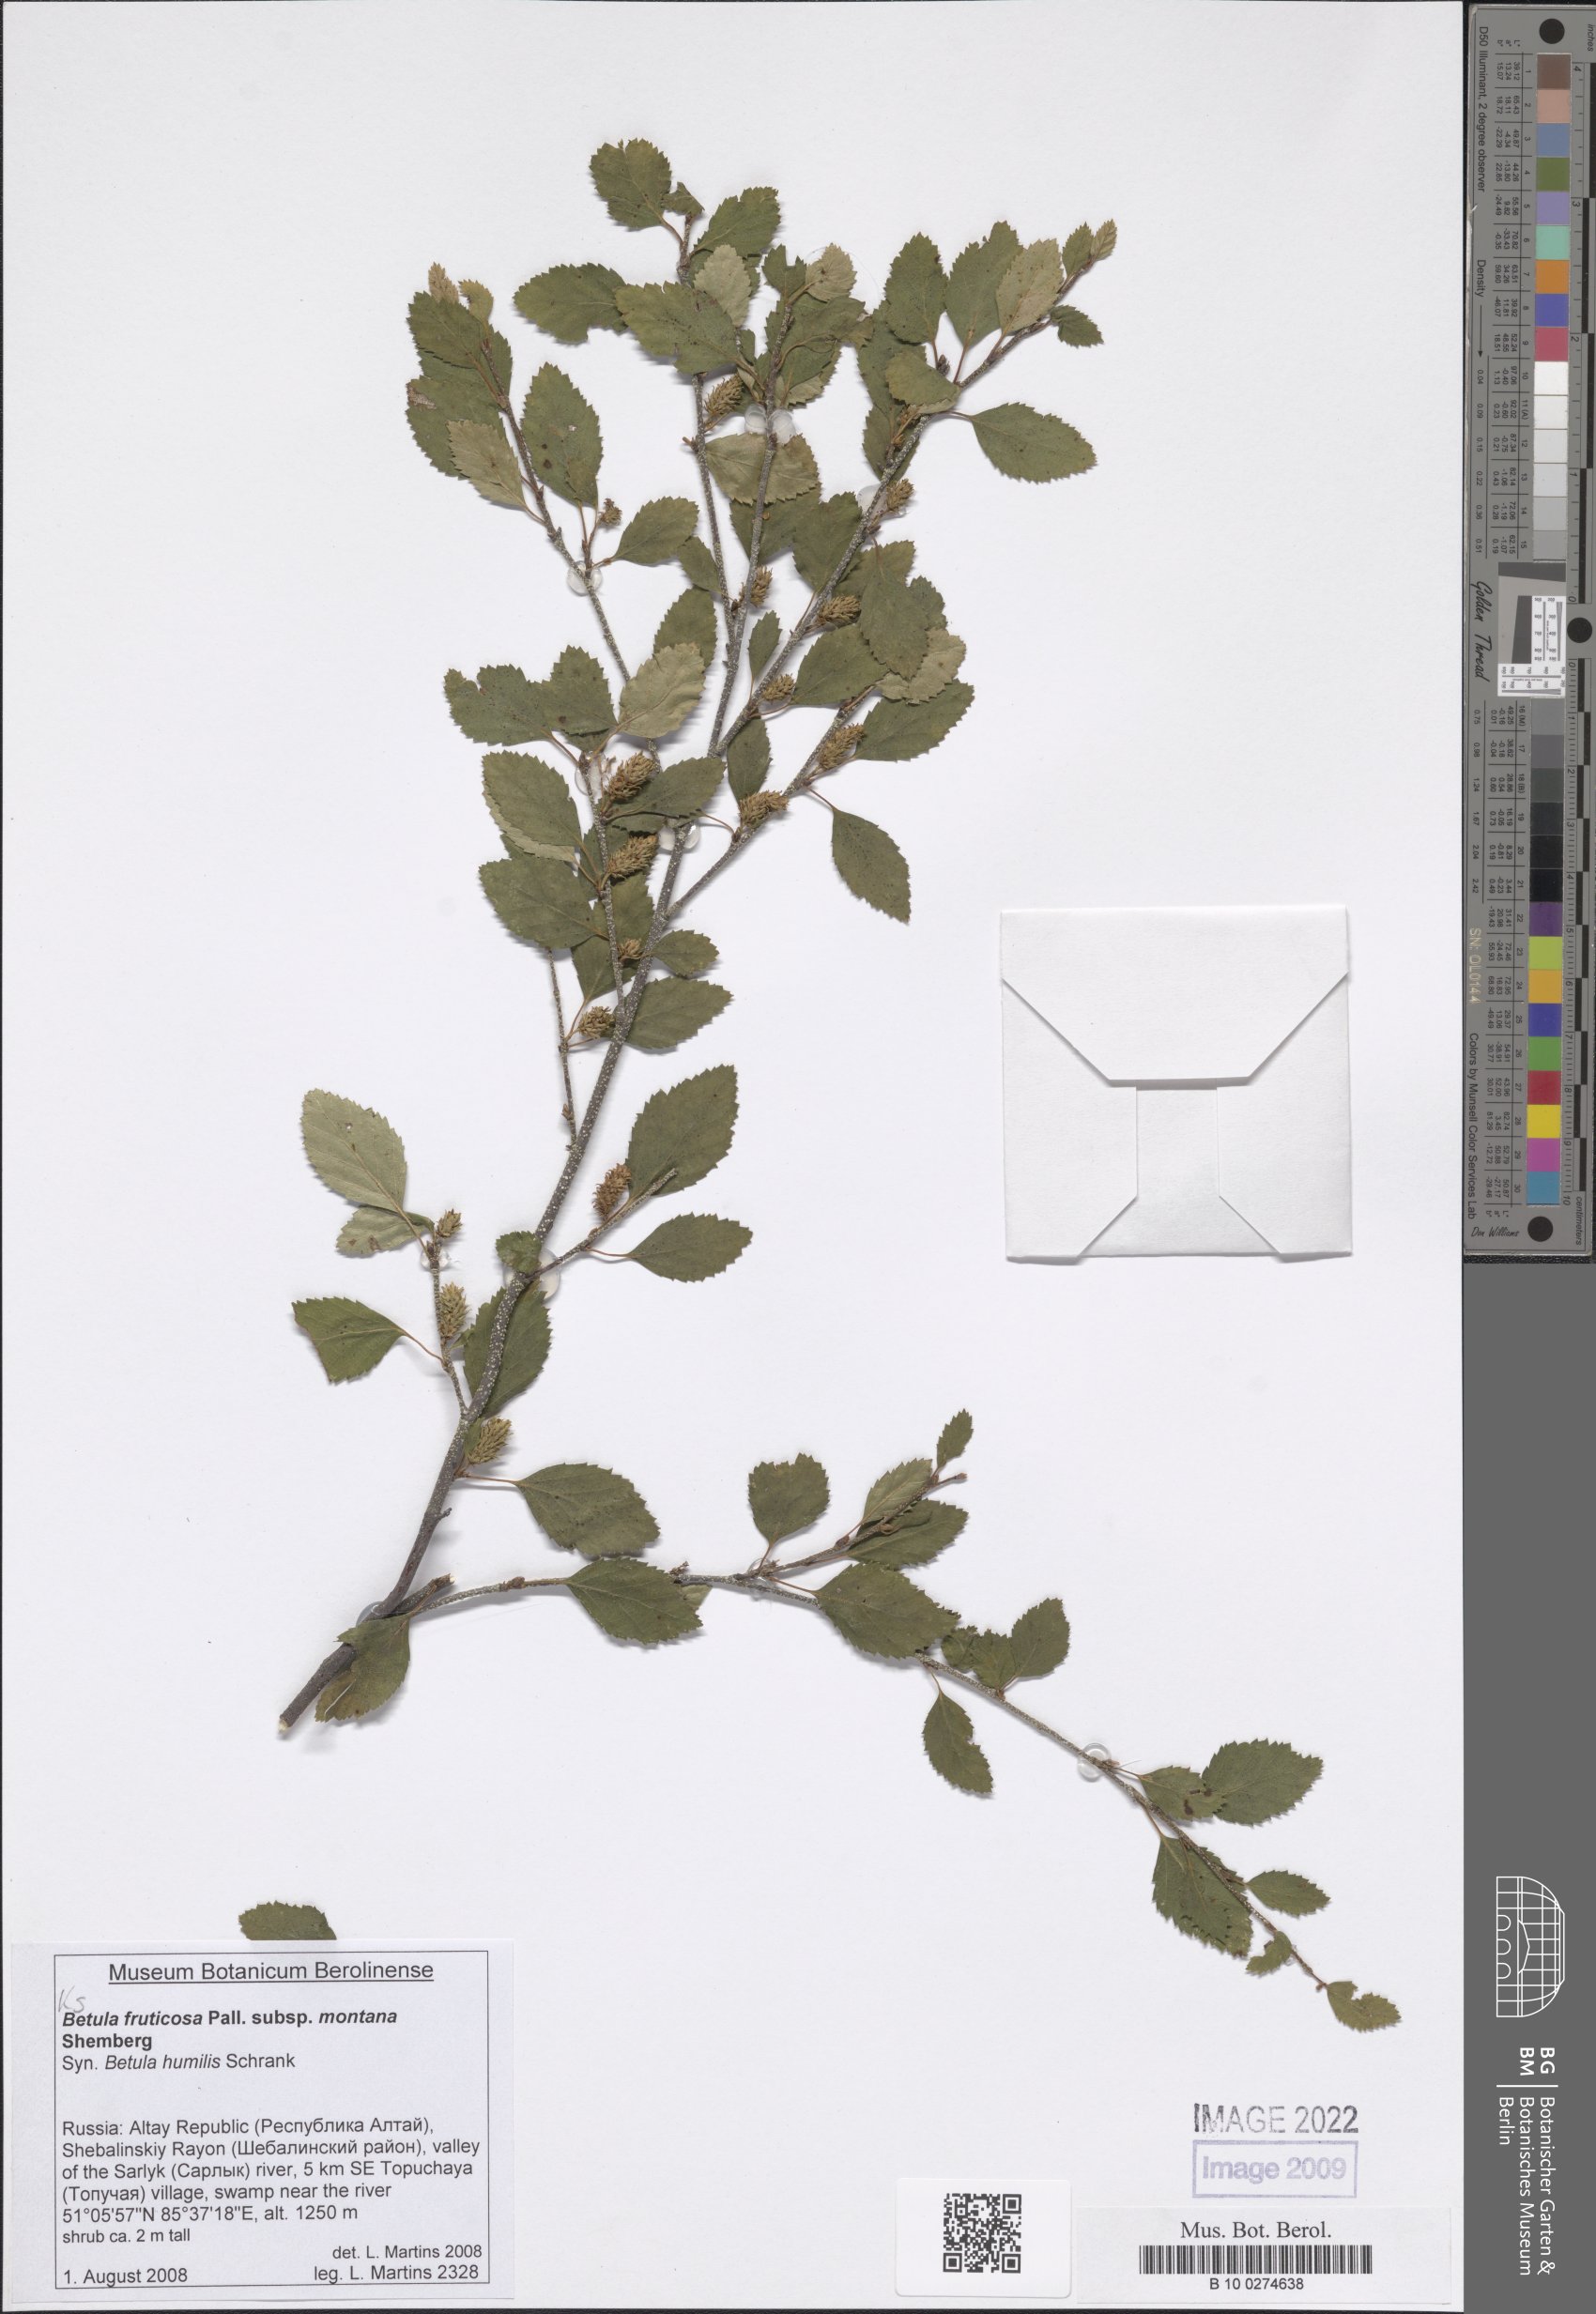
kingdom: Plantae
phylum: Tracheophyta
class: Magnoliopsida
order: Fagales
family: Betulaceae
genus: Betula
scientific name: Betula fruticosa
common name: Japanese bog birch
